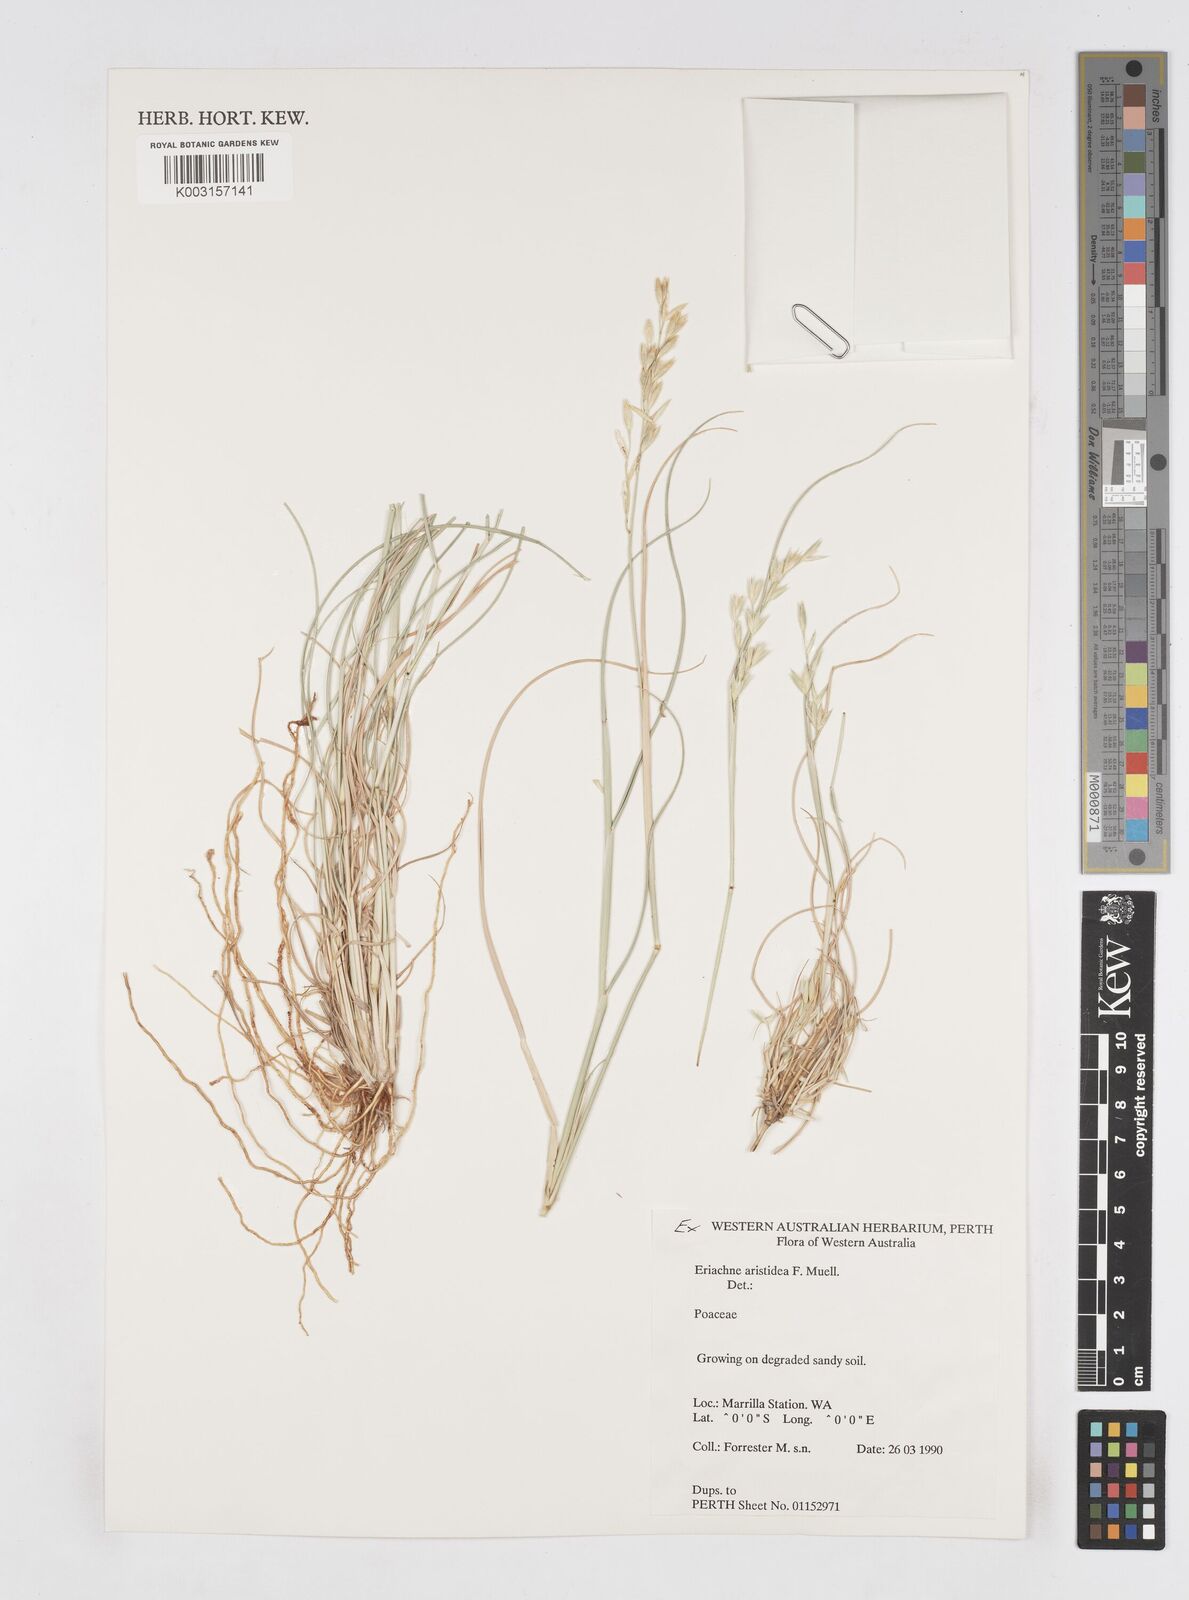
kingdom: Plantae
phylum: Tracheophyta
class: Liliopsida
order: Poales
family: Poaceae
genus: Eriachne
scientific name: Eriachne aristidea
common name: Three-awn wanderrie grass
